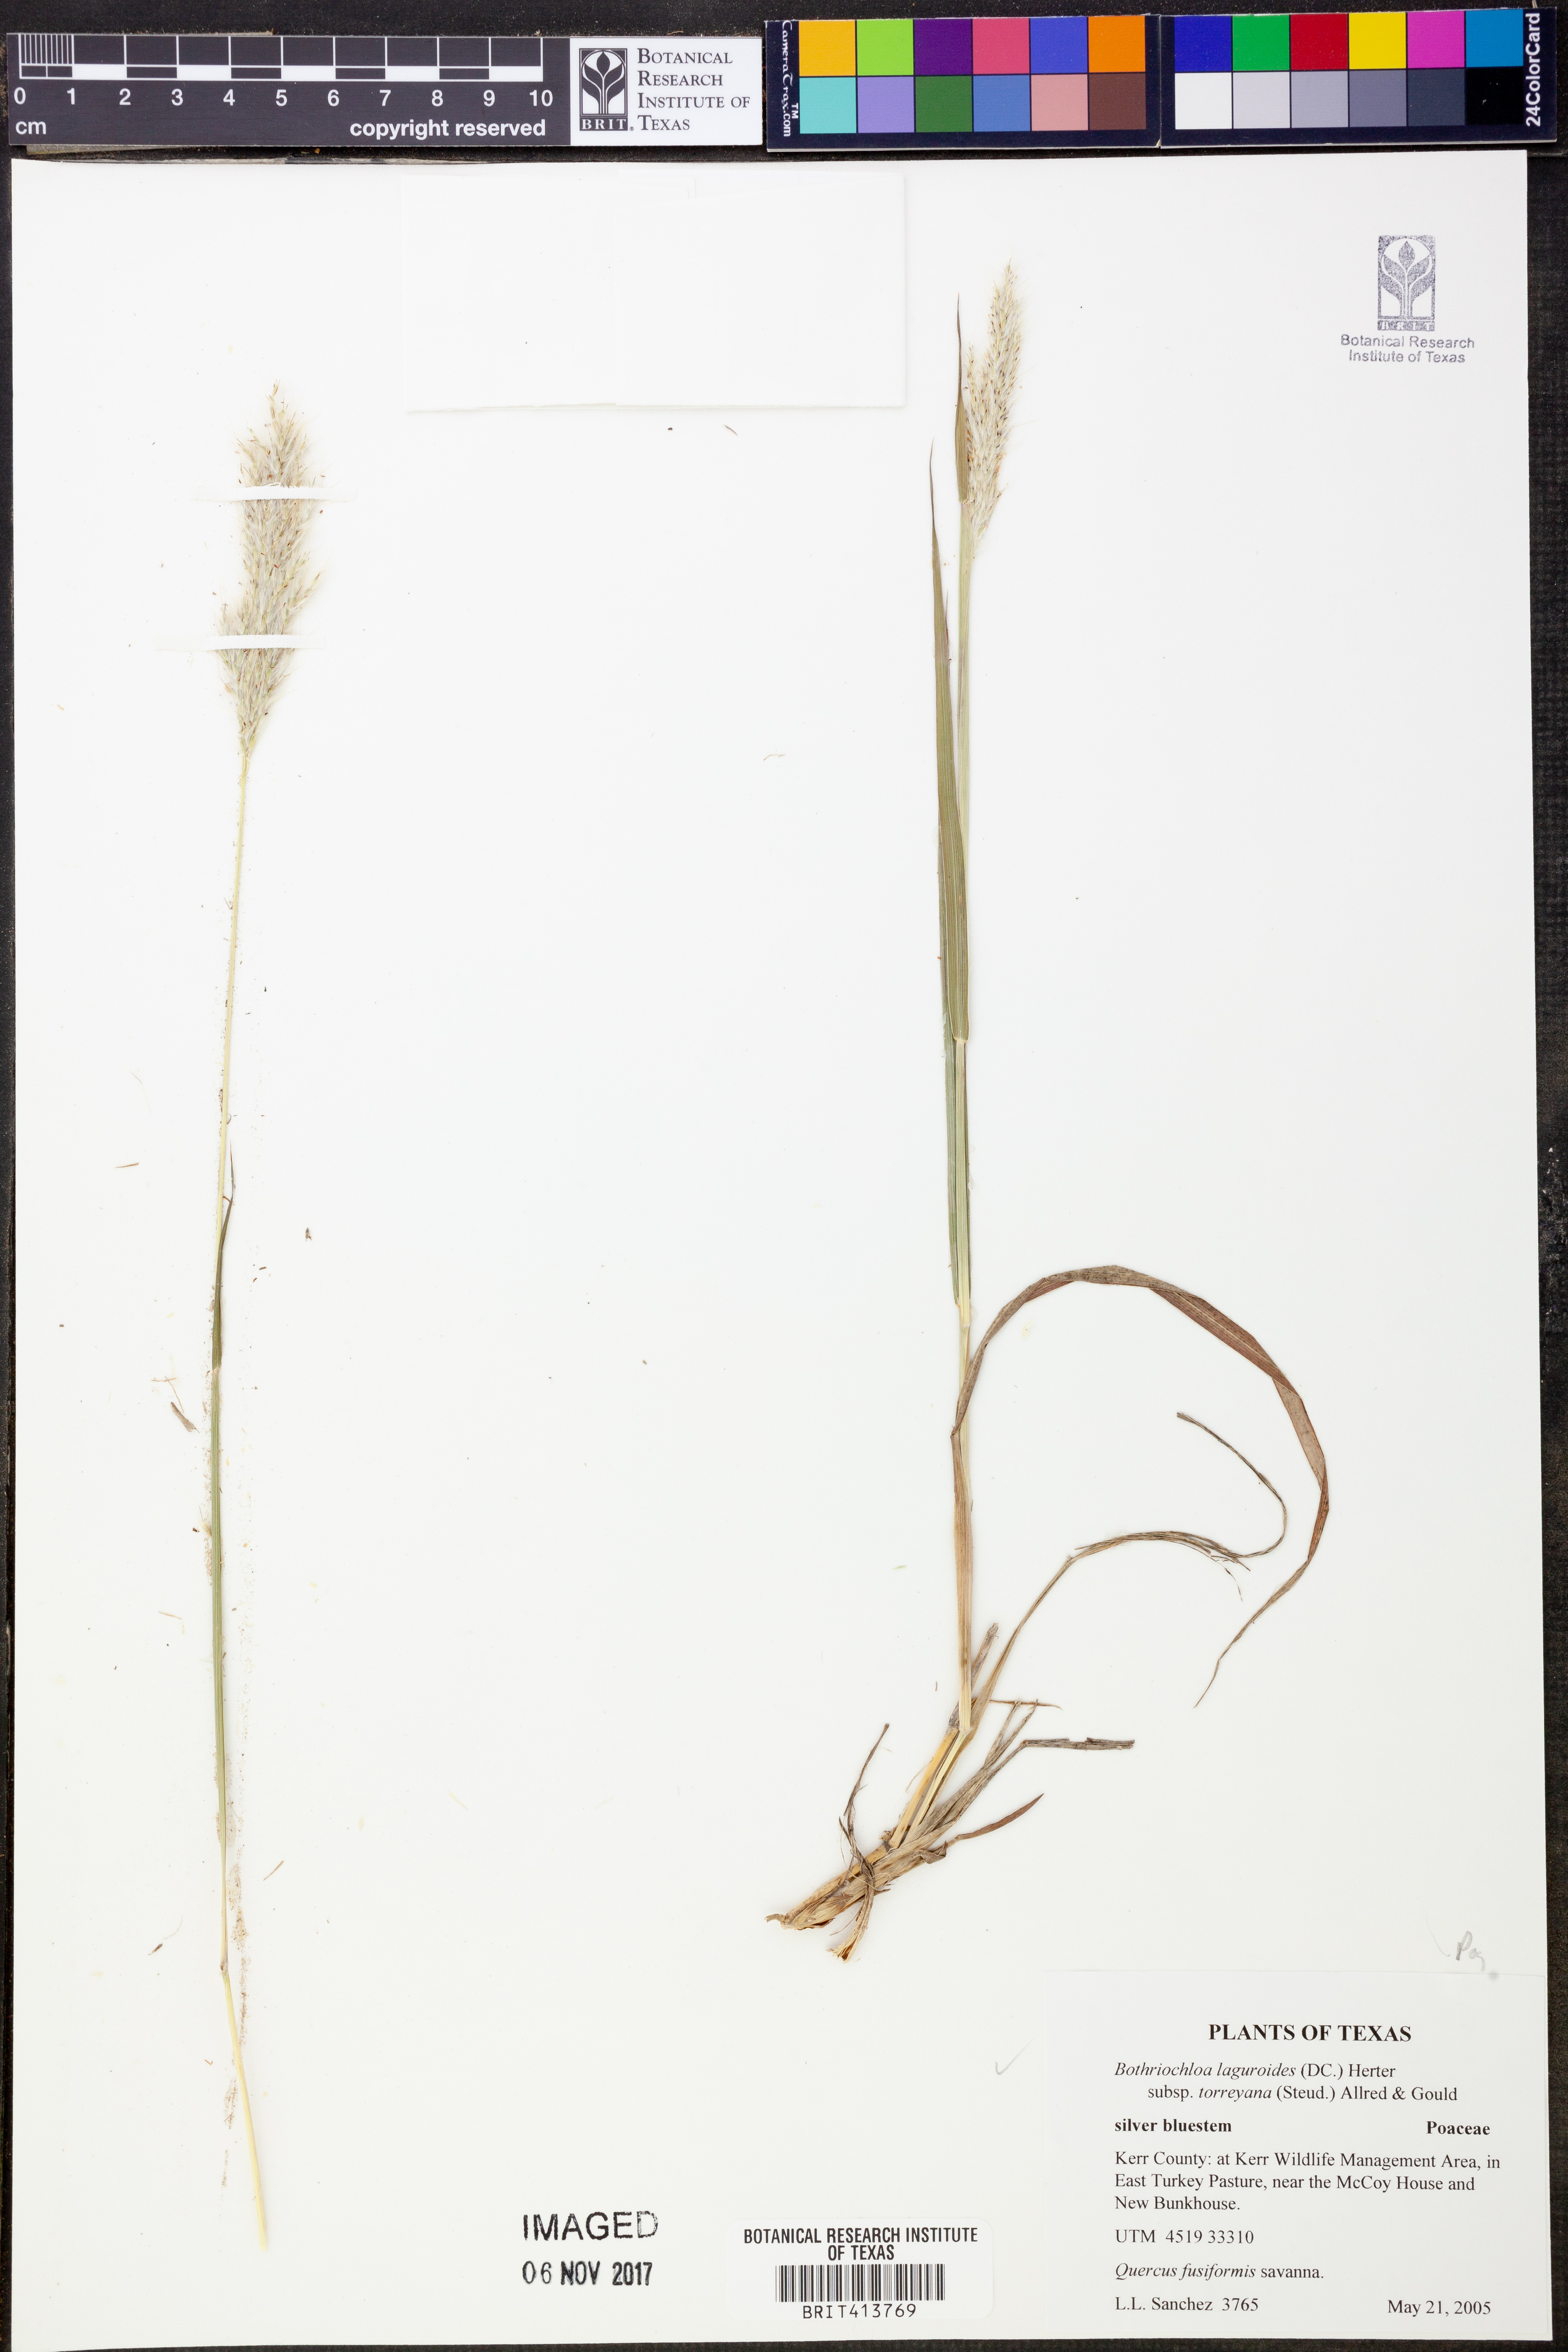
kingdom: Plantae
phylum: Tracheophyta
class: Liliopsida
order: Poales
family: Poaceae
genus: Bothriochloa
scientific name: Bothriochloa torreyana
